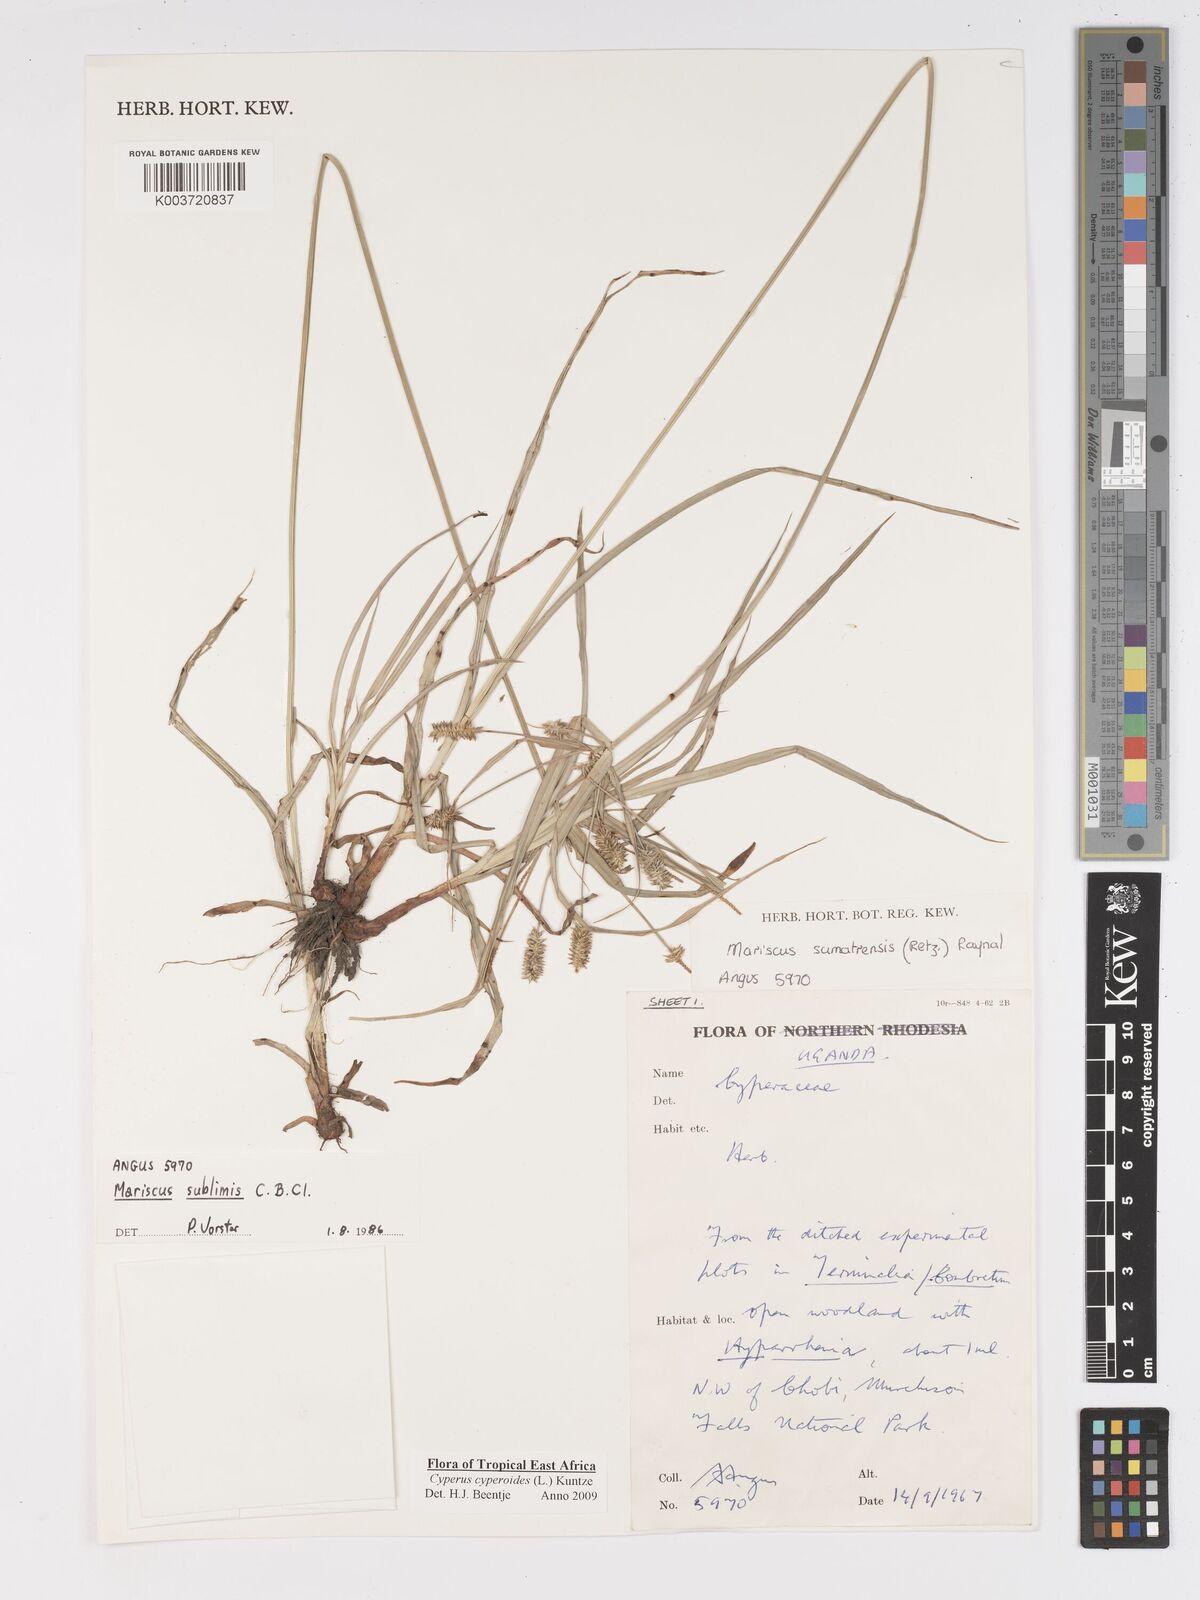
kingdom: Plantae
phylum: Tracheophyta
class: Liliopsida
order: Poales
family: Cyperaceae
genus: Cyperus
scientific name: Cyperus cyperoides
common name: Pacific island flat sedge
